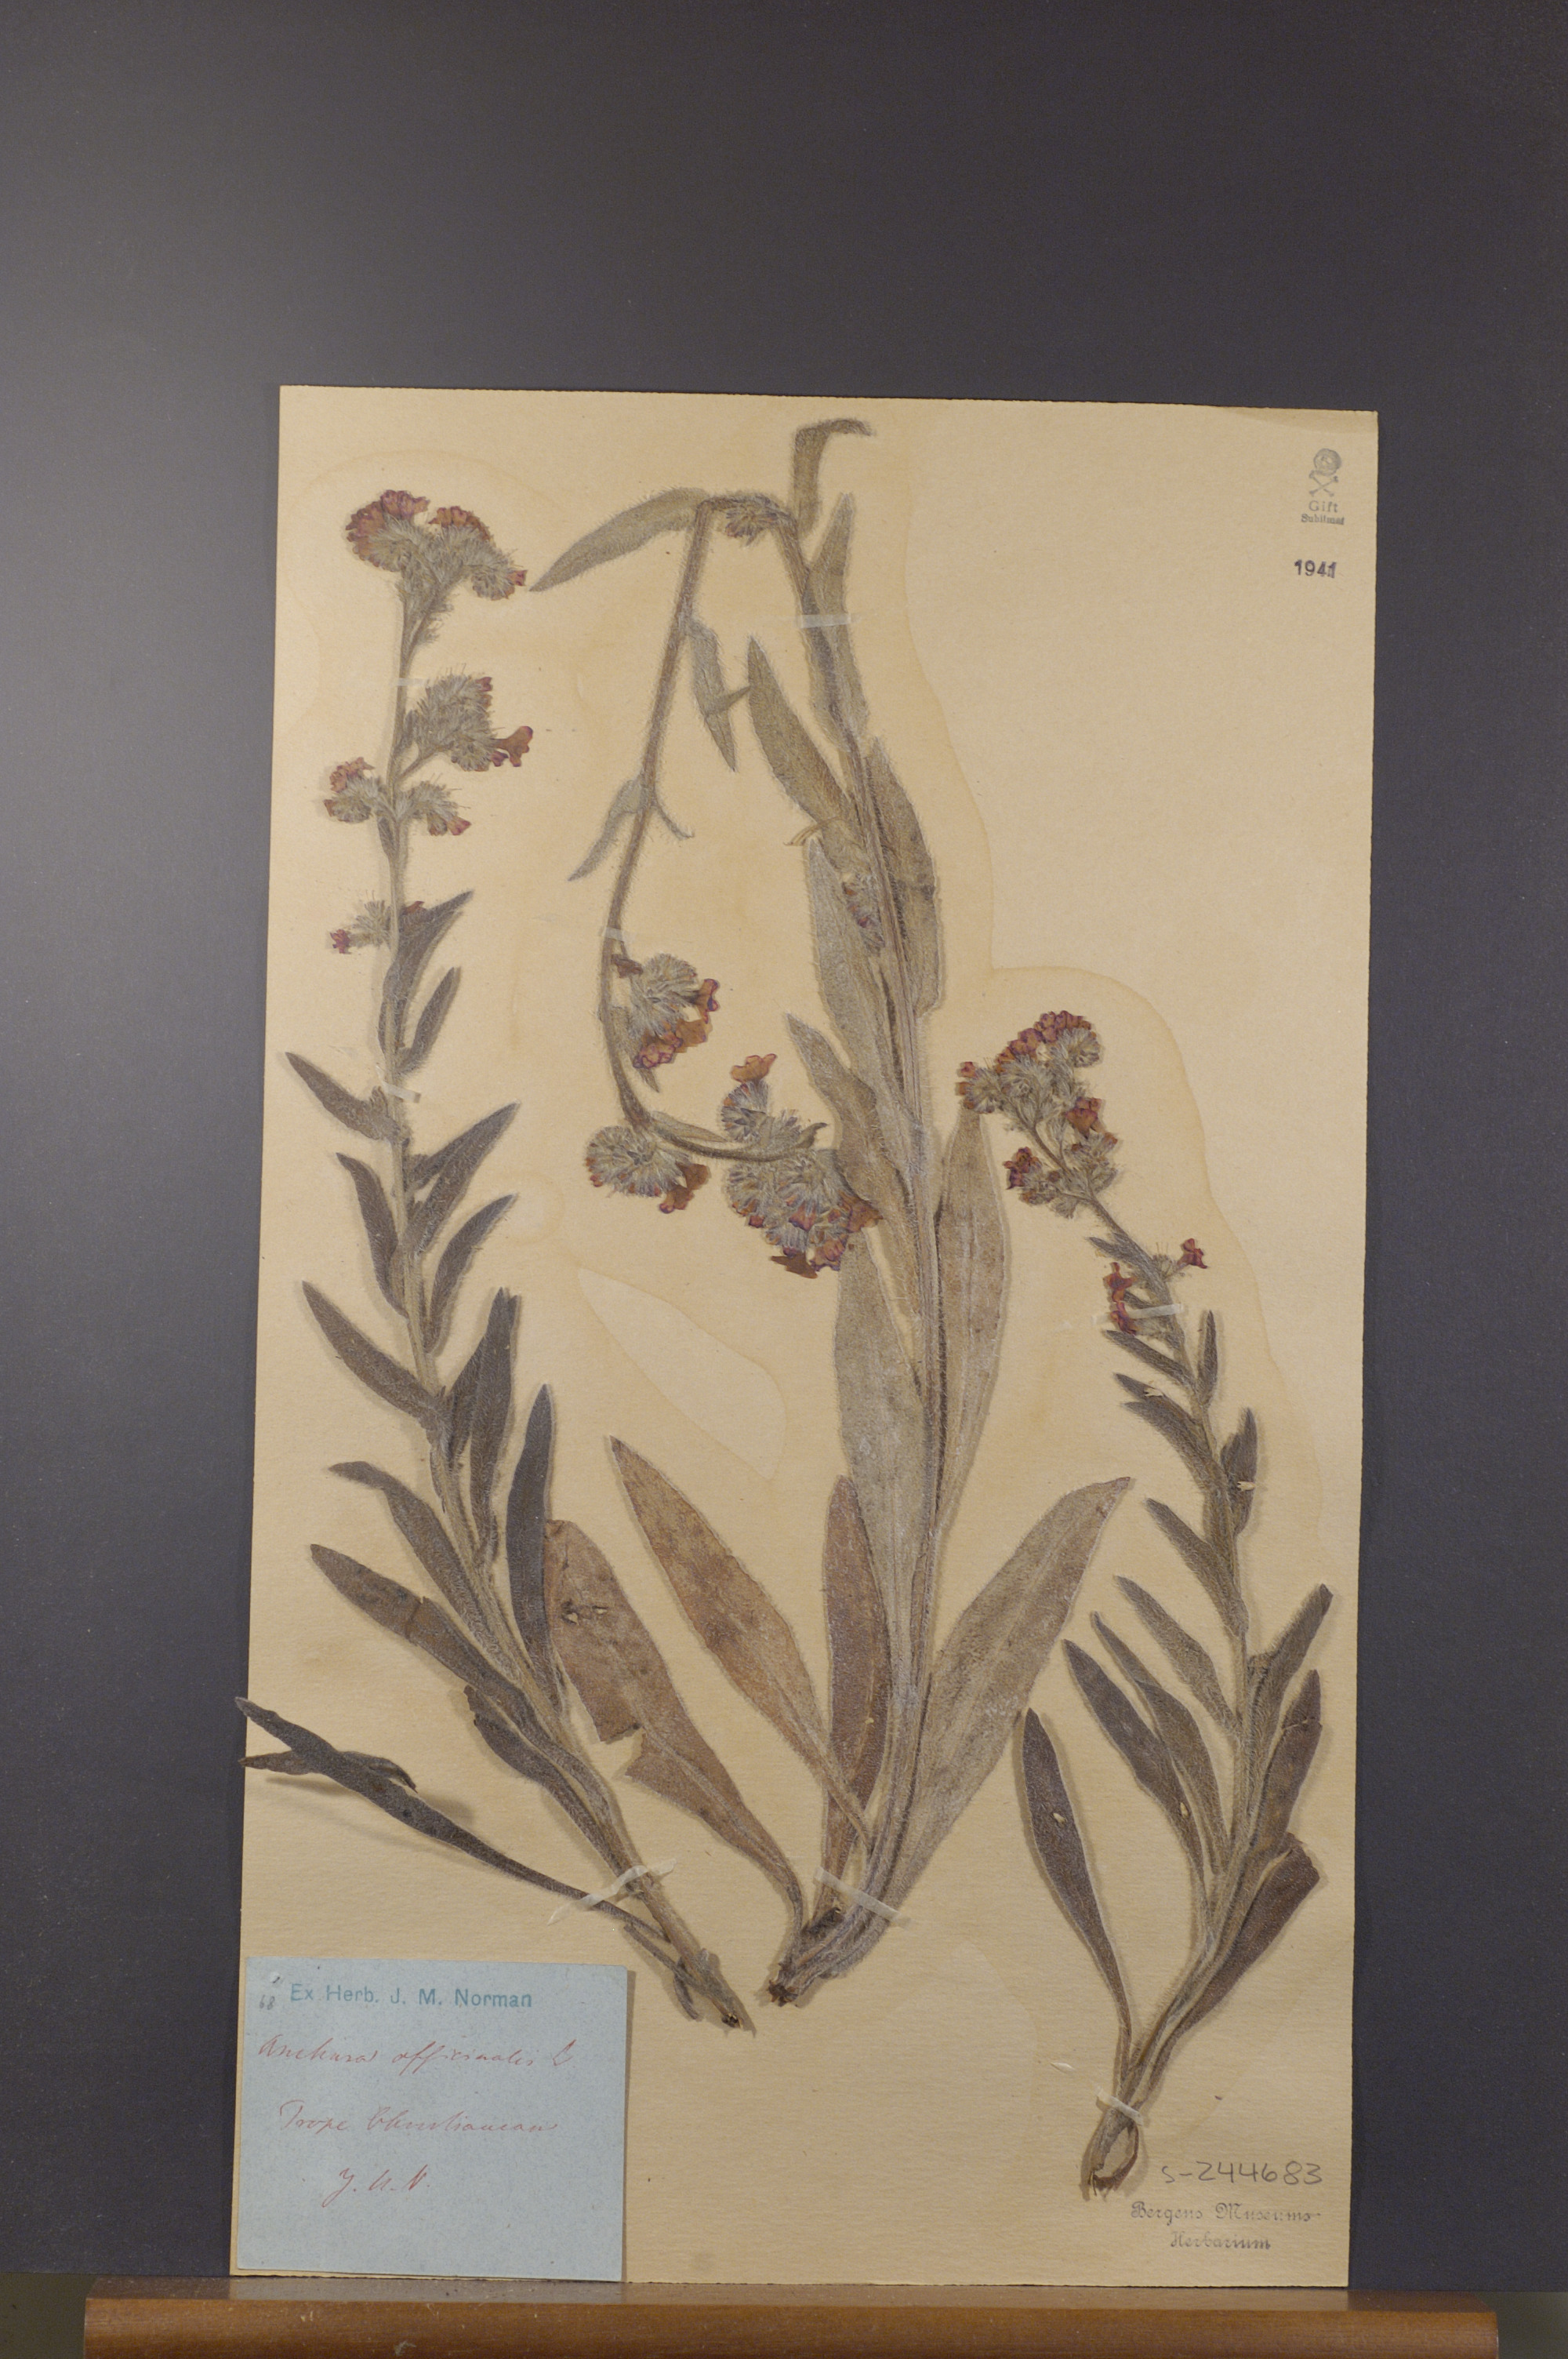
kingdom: Plantae
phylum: Tracheophyta
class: Magnoliopsida
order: Boraginales
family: Boraginaceae
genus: Anchusa
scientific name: Anchusa officinalis
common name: Alkanet
